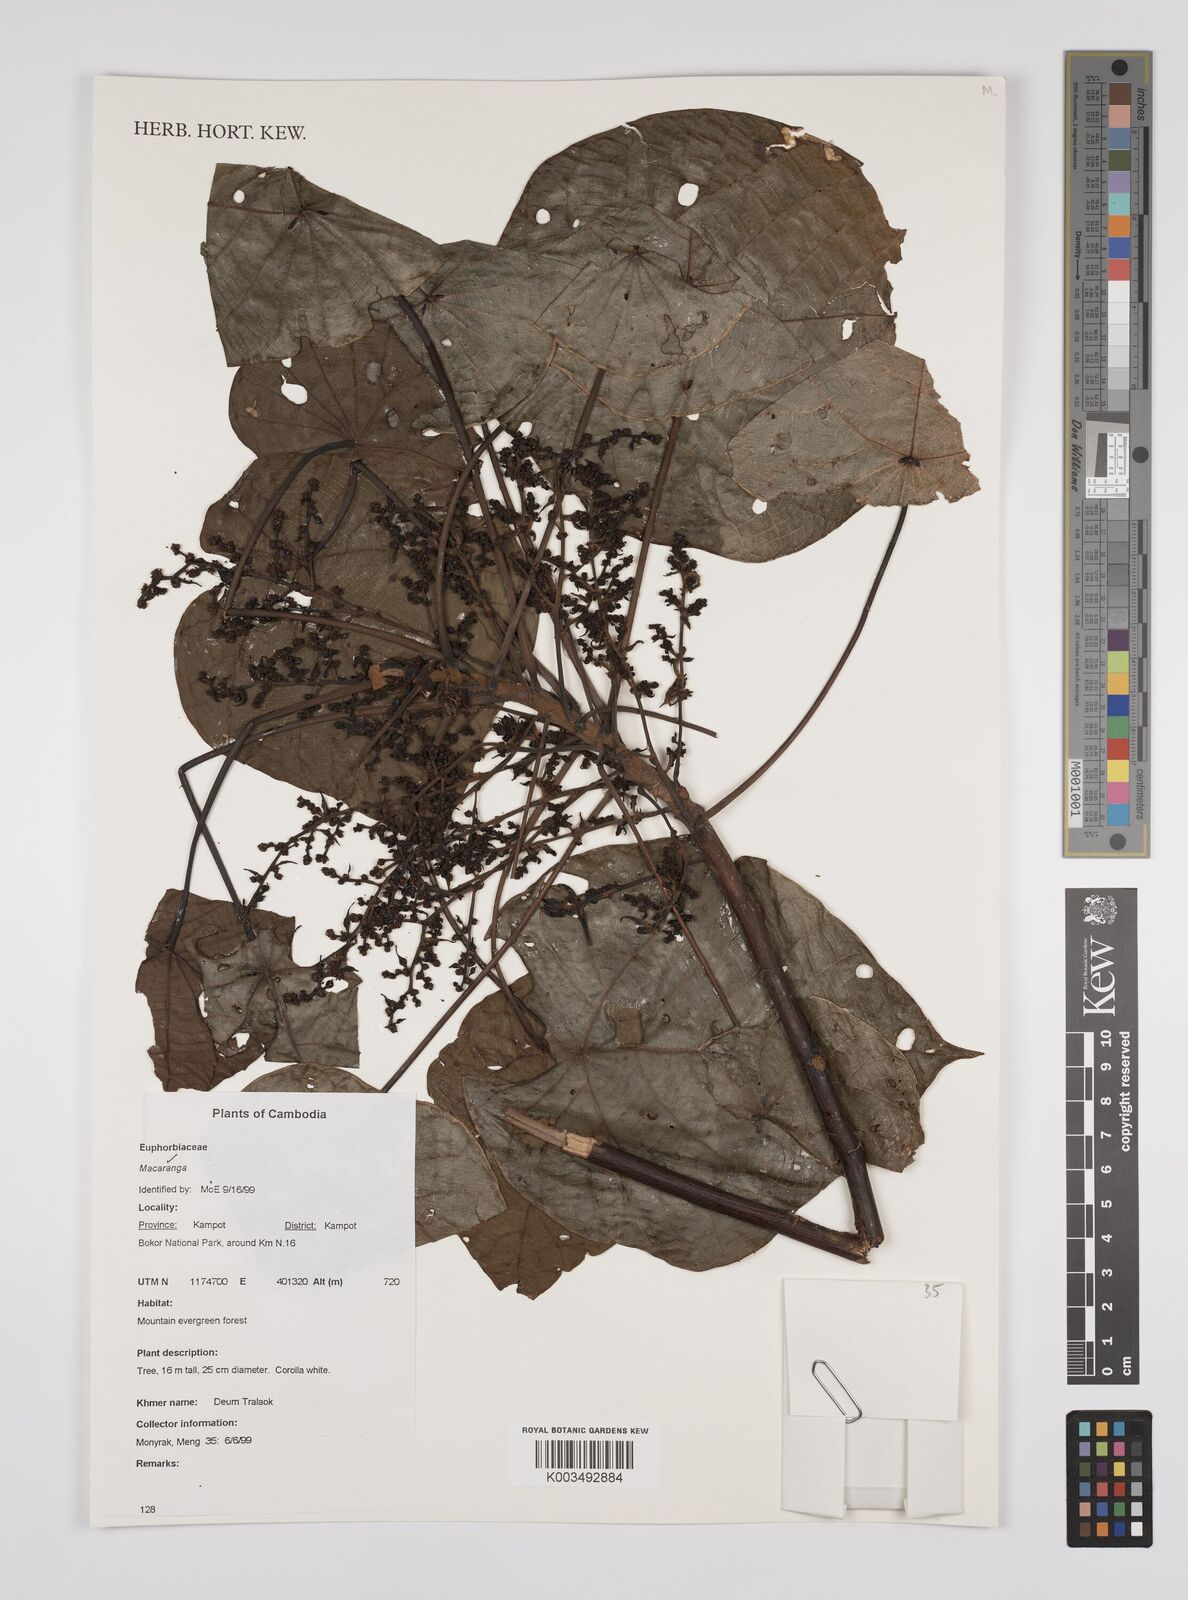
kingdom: Plantae
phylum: Tracheophyta
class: Magnoliopsida
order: Malpighiales
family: Euphorbiaceae
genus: Macaranga
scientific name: Macaranga
